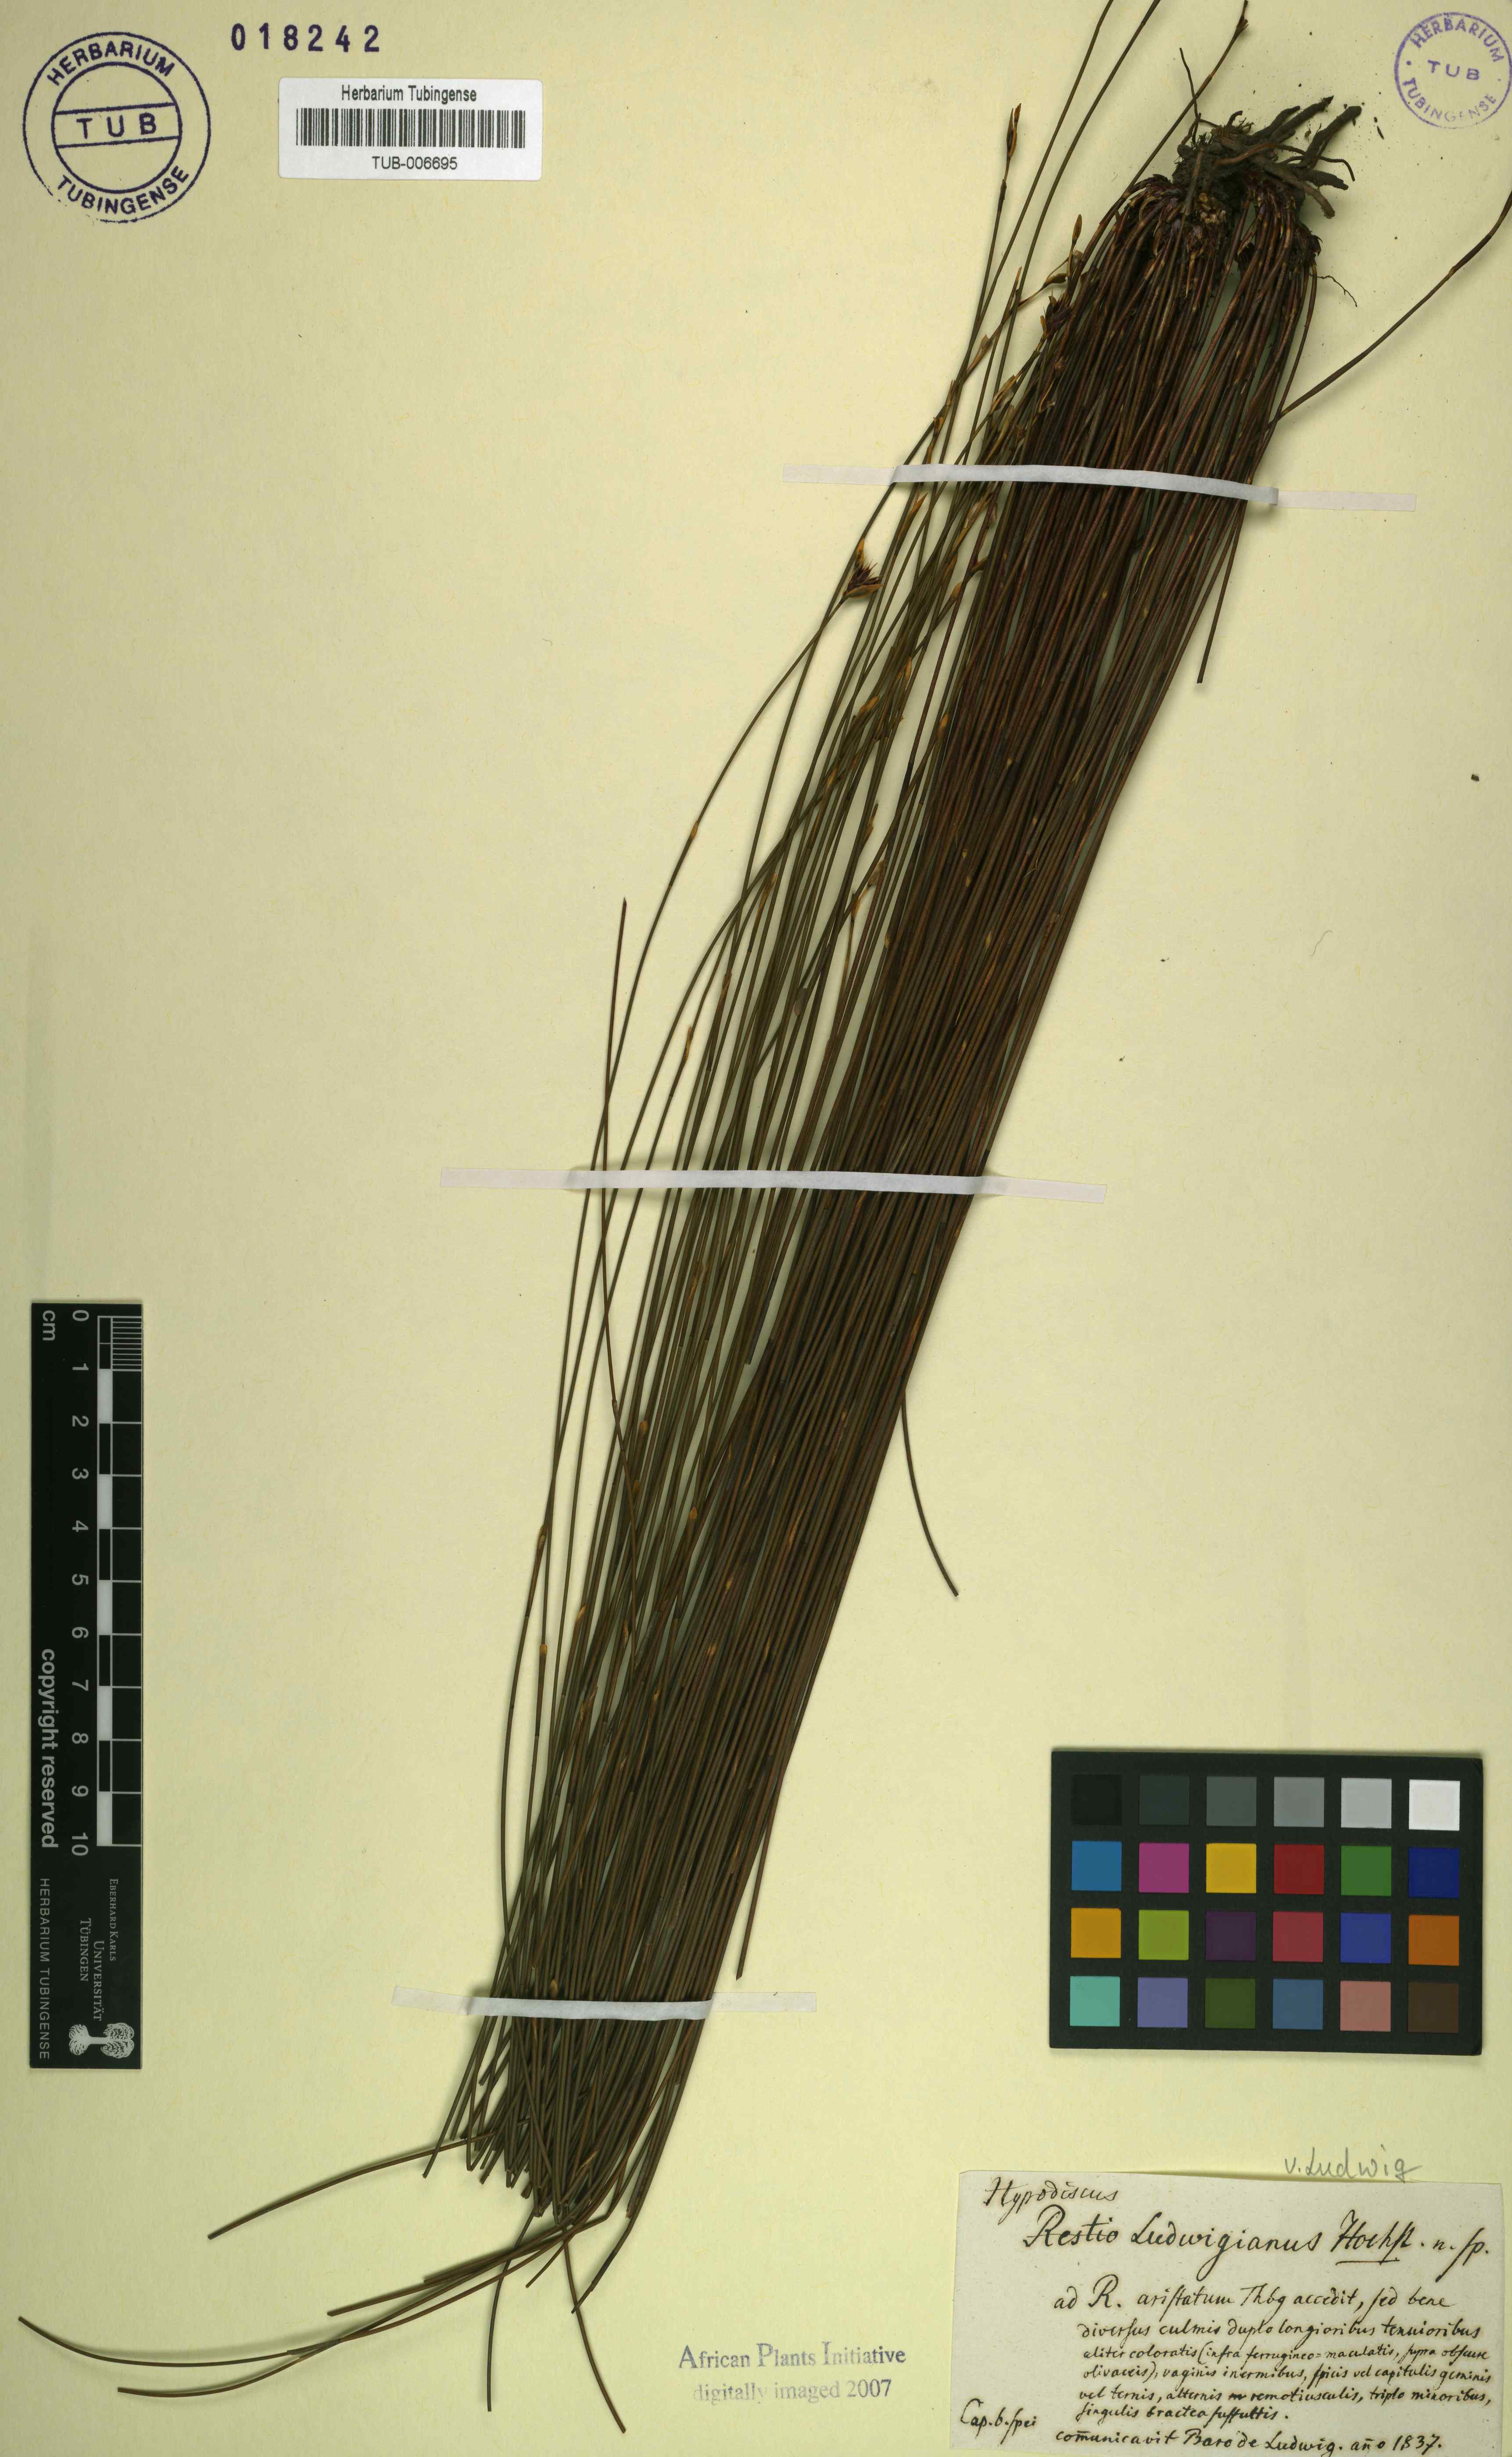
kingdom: Plantae
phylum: Tracheophyta
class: Liliopsida
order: Poales
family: Restionaceae
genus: Hypodiscus
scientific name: Hypodiscus
